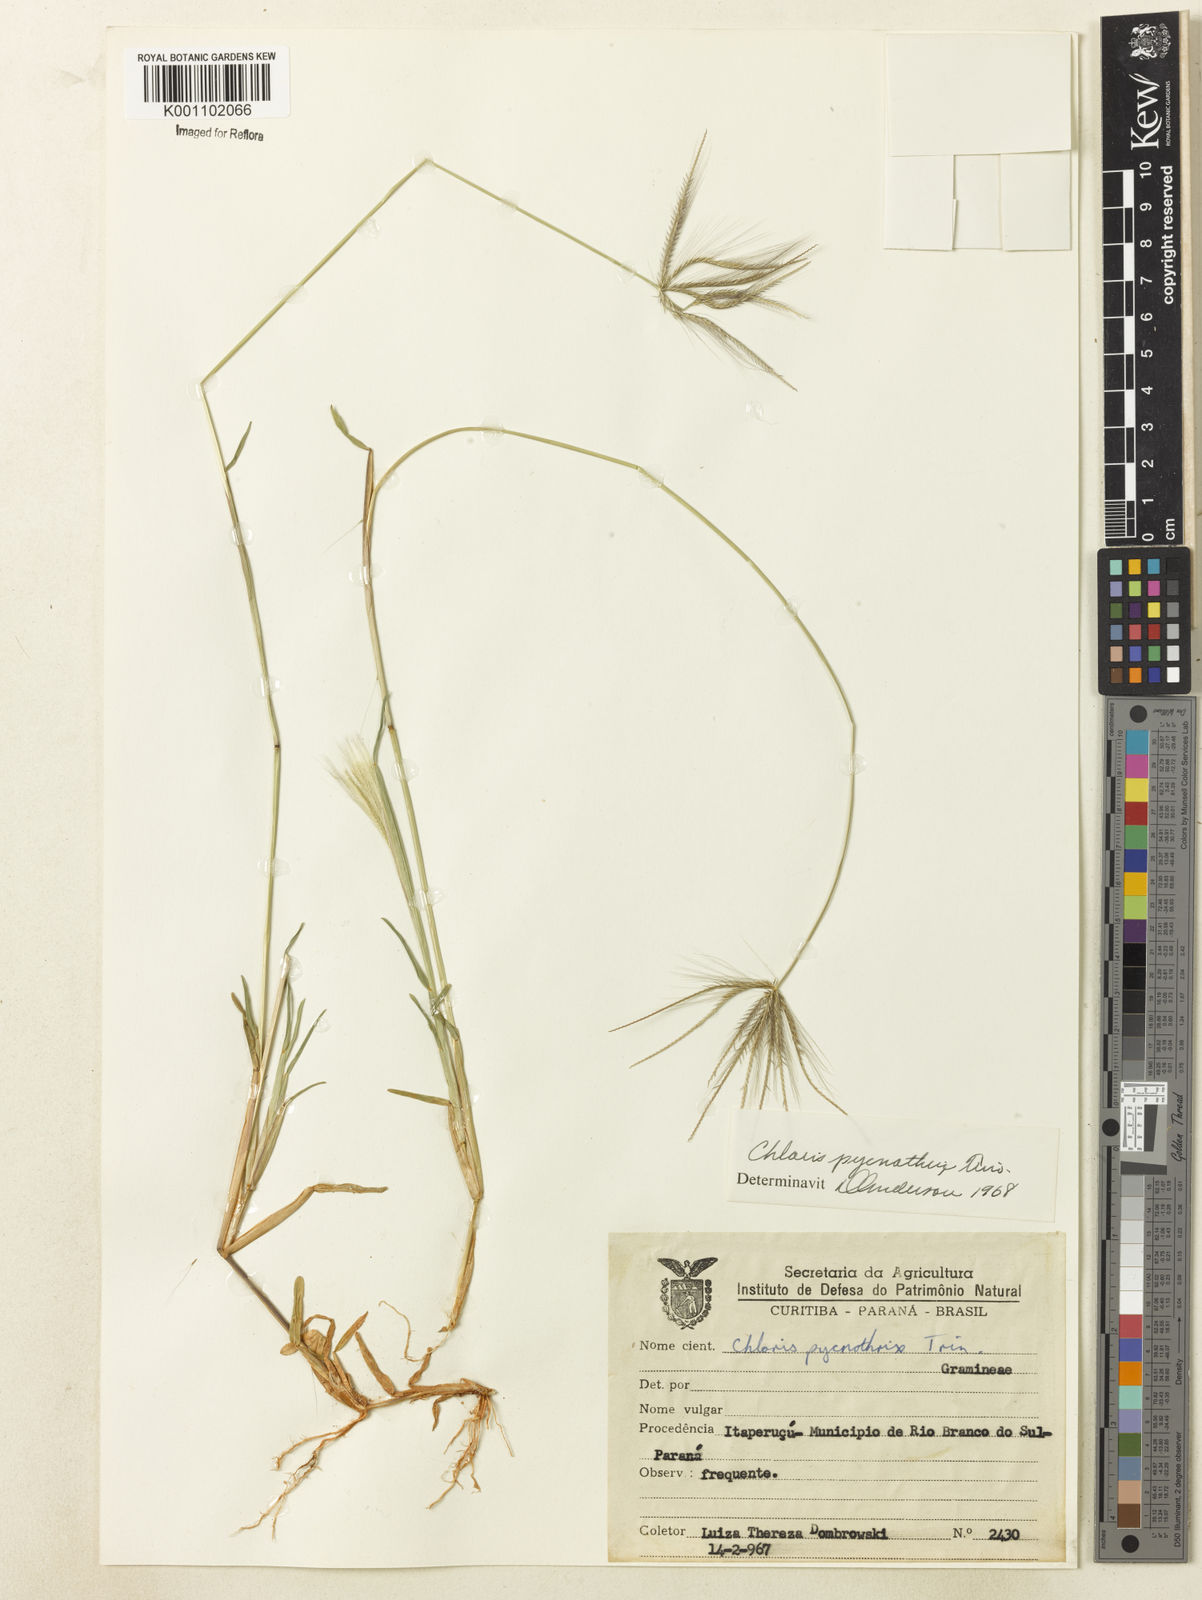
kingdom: Plantae
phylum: Tracheophyta
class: Liliopsida
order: Poales
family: Poaceae
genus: Chloris
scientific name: Chloris pycnothrix
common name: Spiderweb chloris
